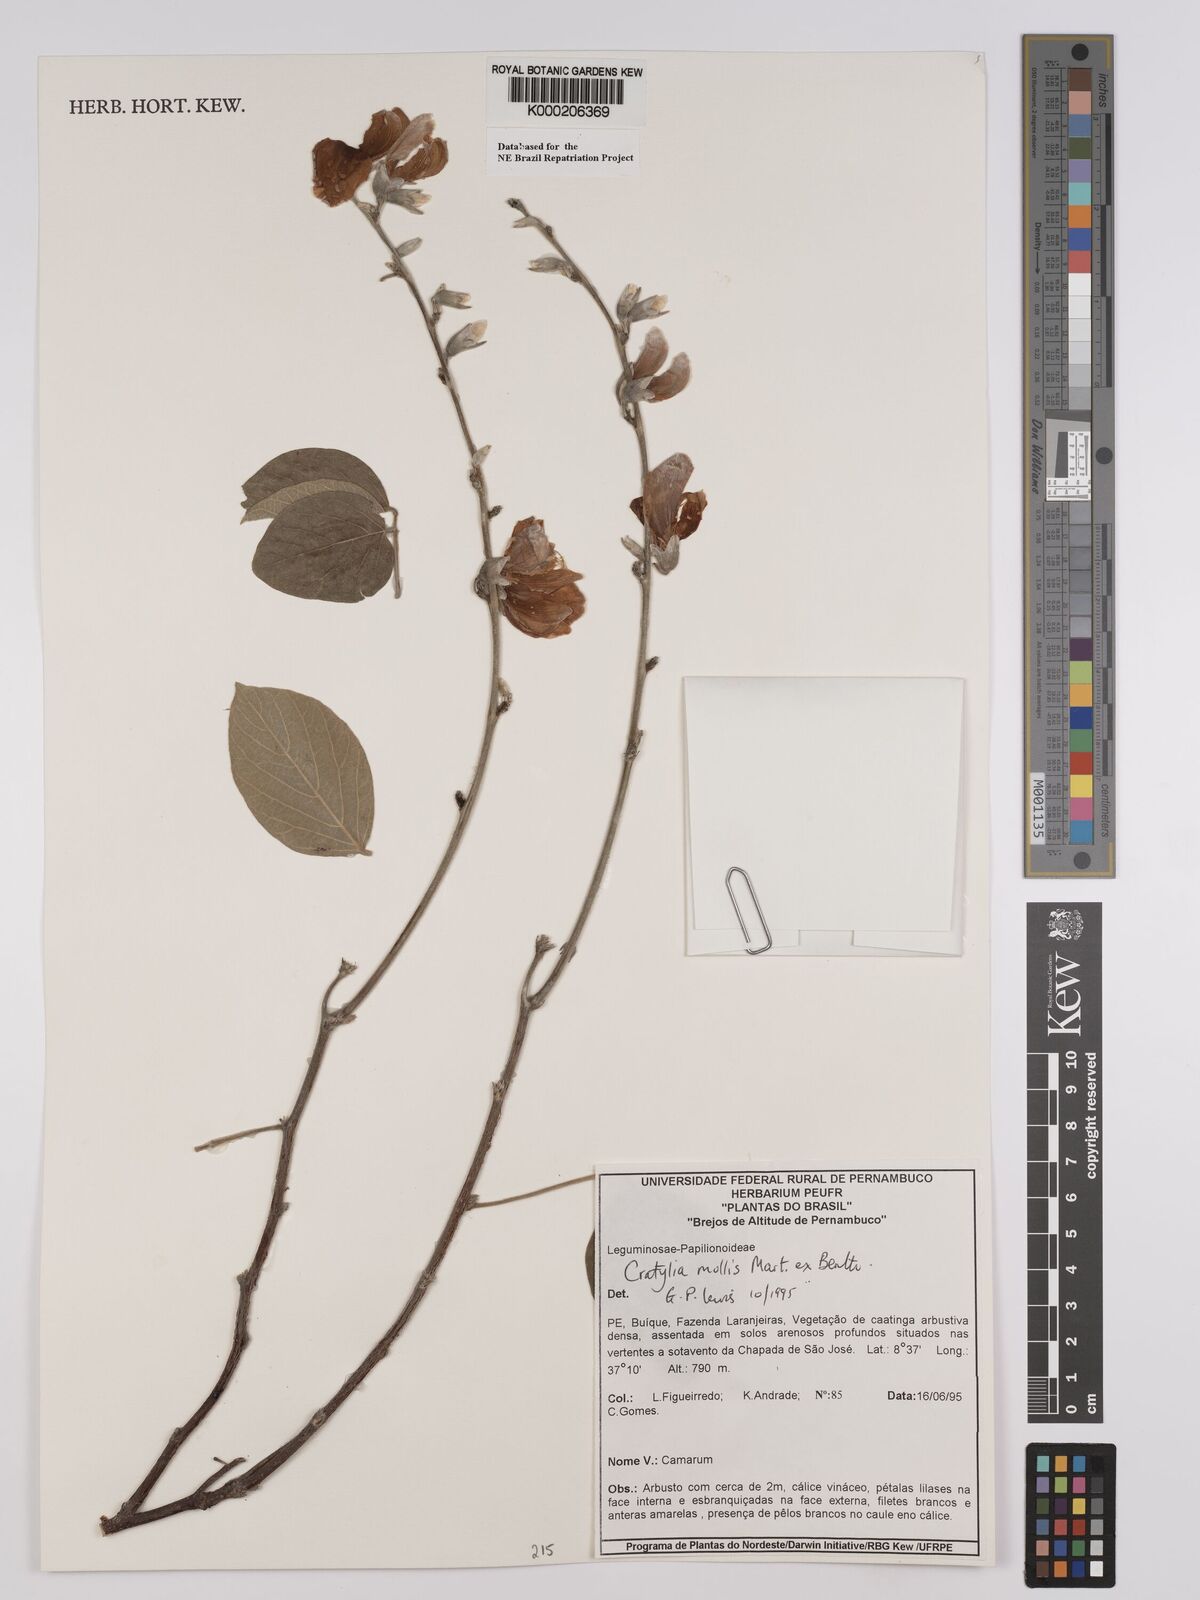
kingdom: Plantae
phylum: Tracheophyta
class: Magnoliopsida
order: Fabales
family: Fabaceae
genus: Cratylia
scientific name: Cratylia mollis
